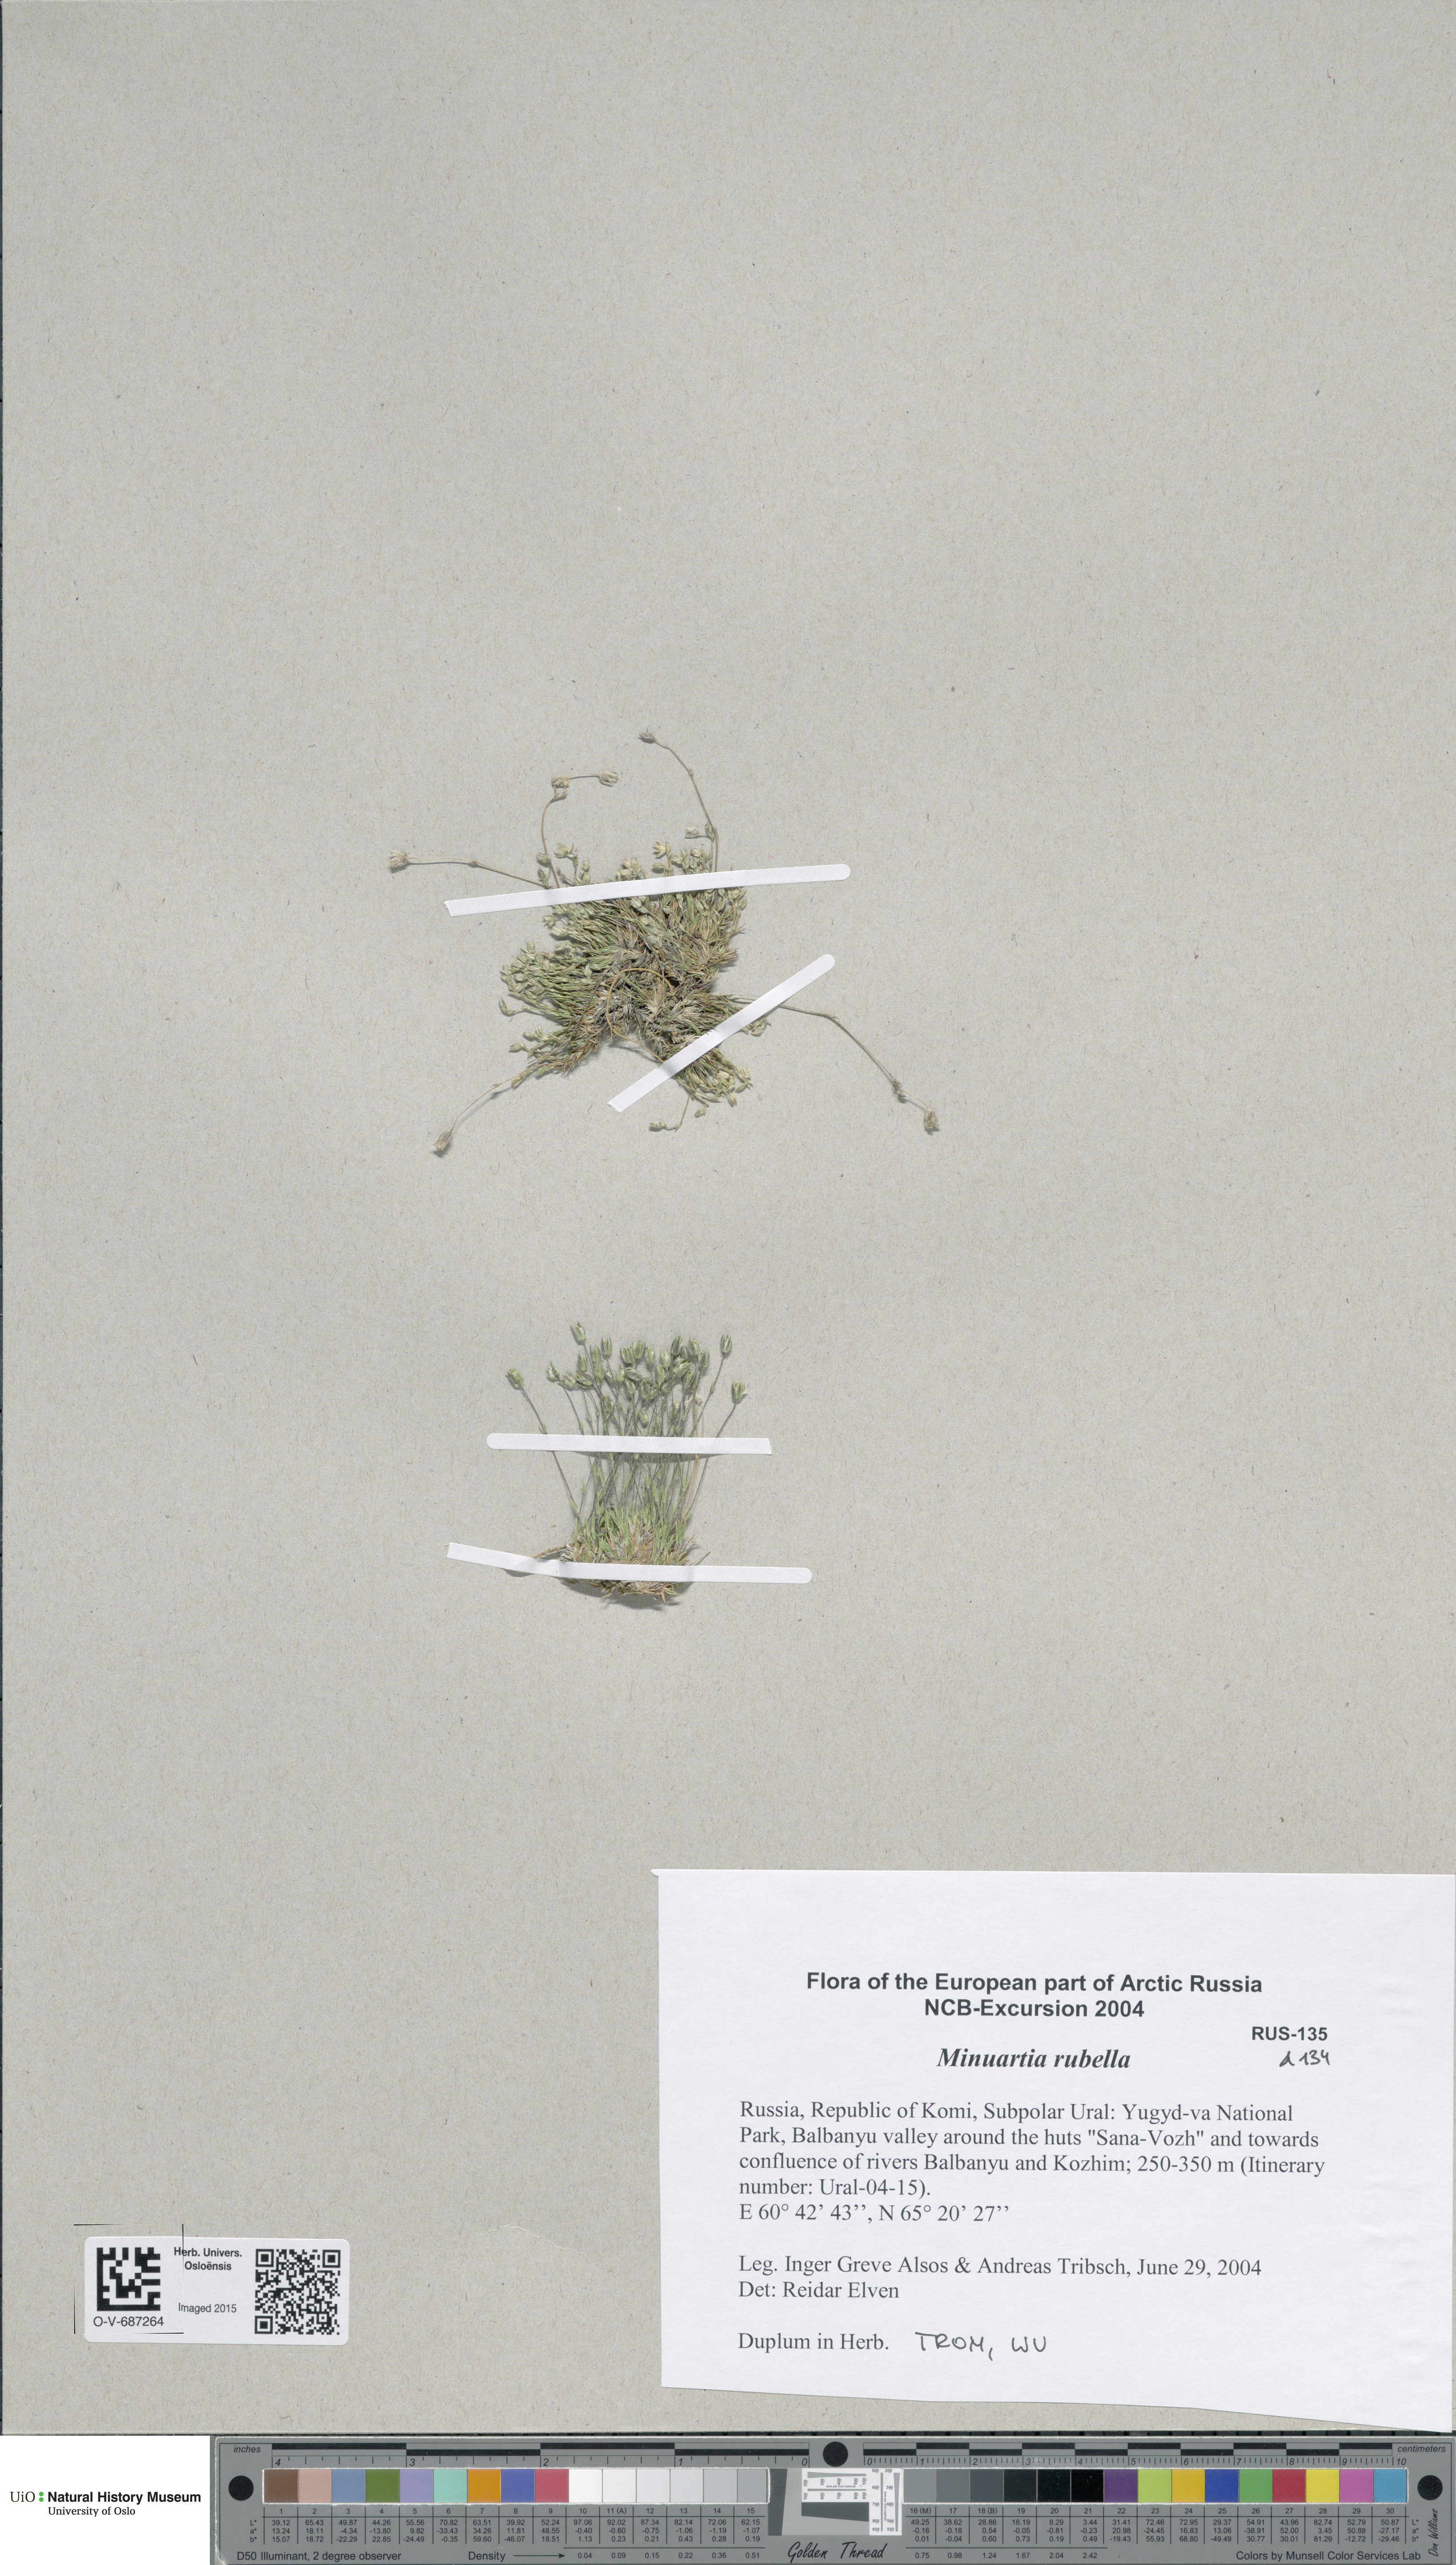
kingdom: Plantae
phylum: Tracheophyta
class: Magnoliopsida
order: Caryophyllales
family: Caryophyllaceae
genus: Sabulina
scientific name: Sabulina rubella
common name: Beautiful sandwort
